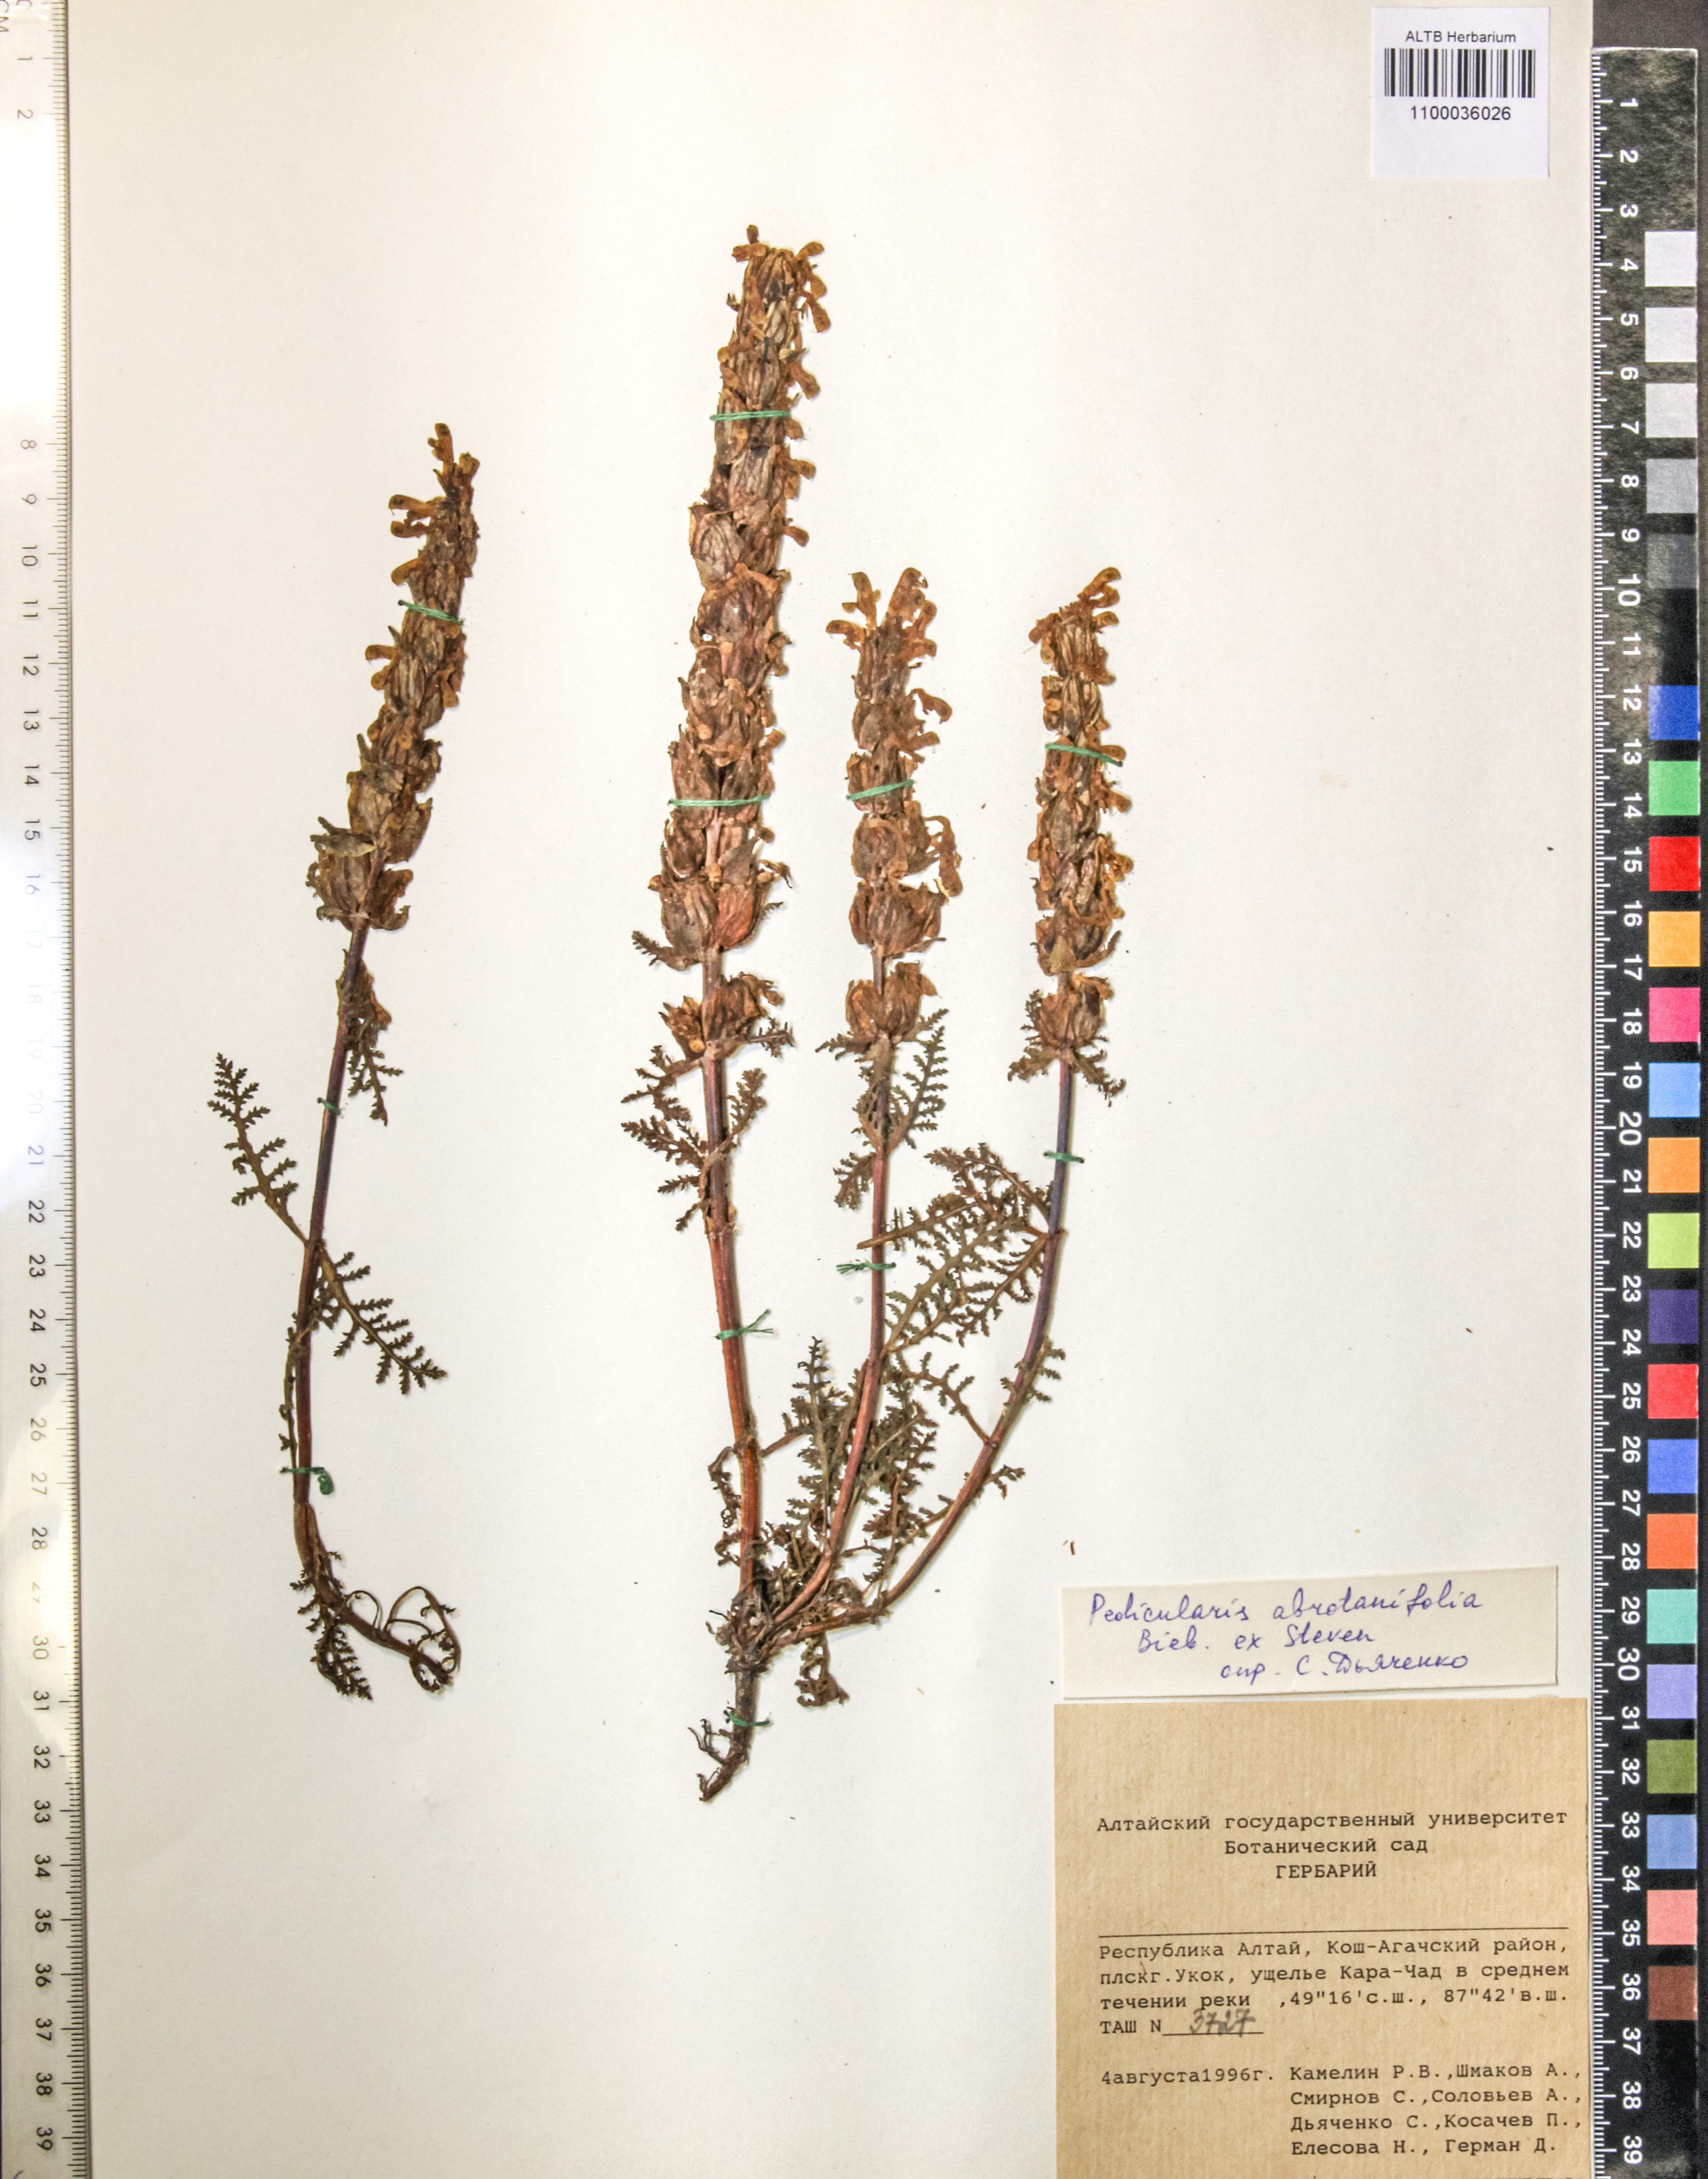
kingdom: Plantae
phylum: Tracheophyta
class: Magnoliopsida
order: Lamiales
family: Orobanchaceae
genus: Pedicularis
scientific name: Pedicularis abrotanifolia
